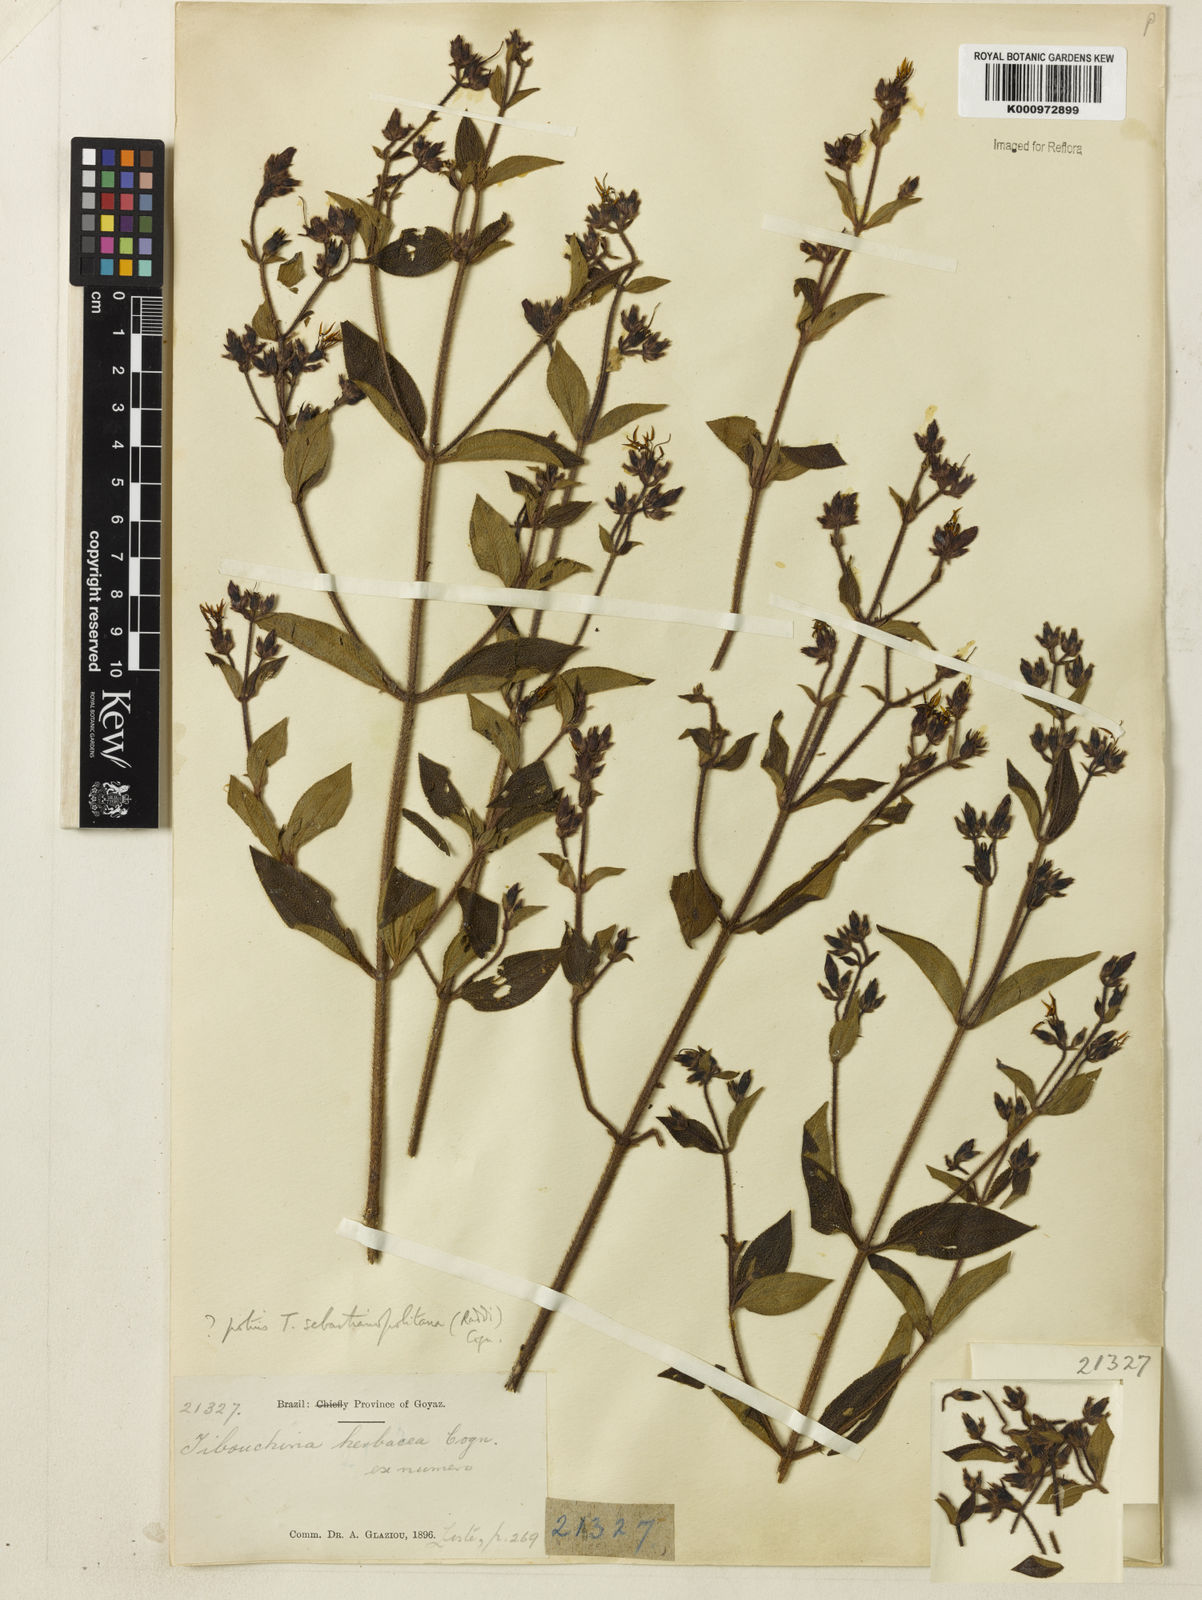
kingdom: Plantae
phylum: Tracheophyta
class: Magnoliopsida
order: Myrtales
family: Melastomataceae
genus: Chaetogastra
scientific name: Chaetogastra sebastianopolitana
